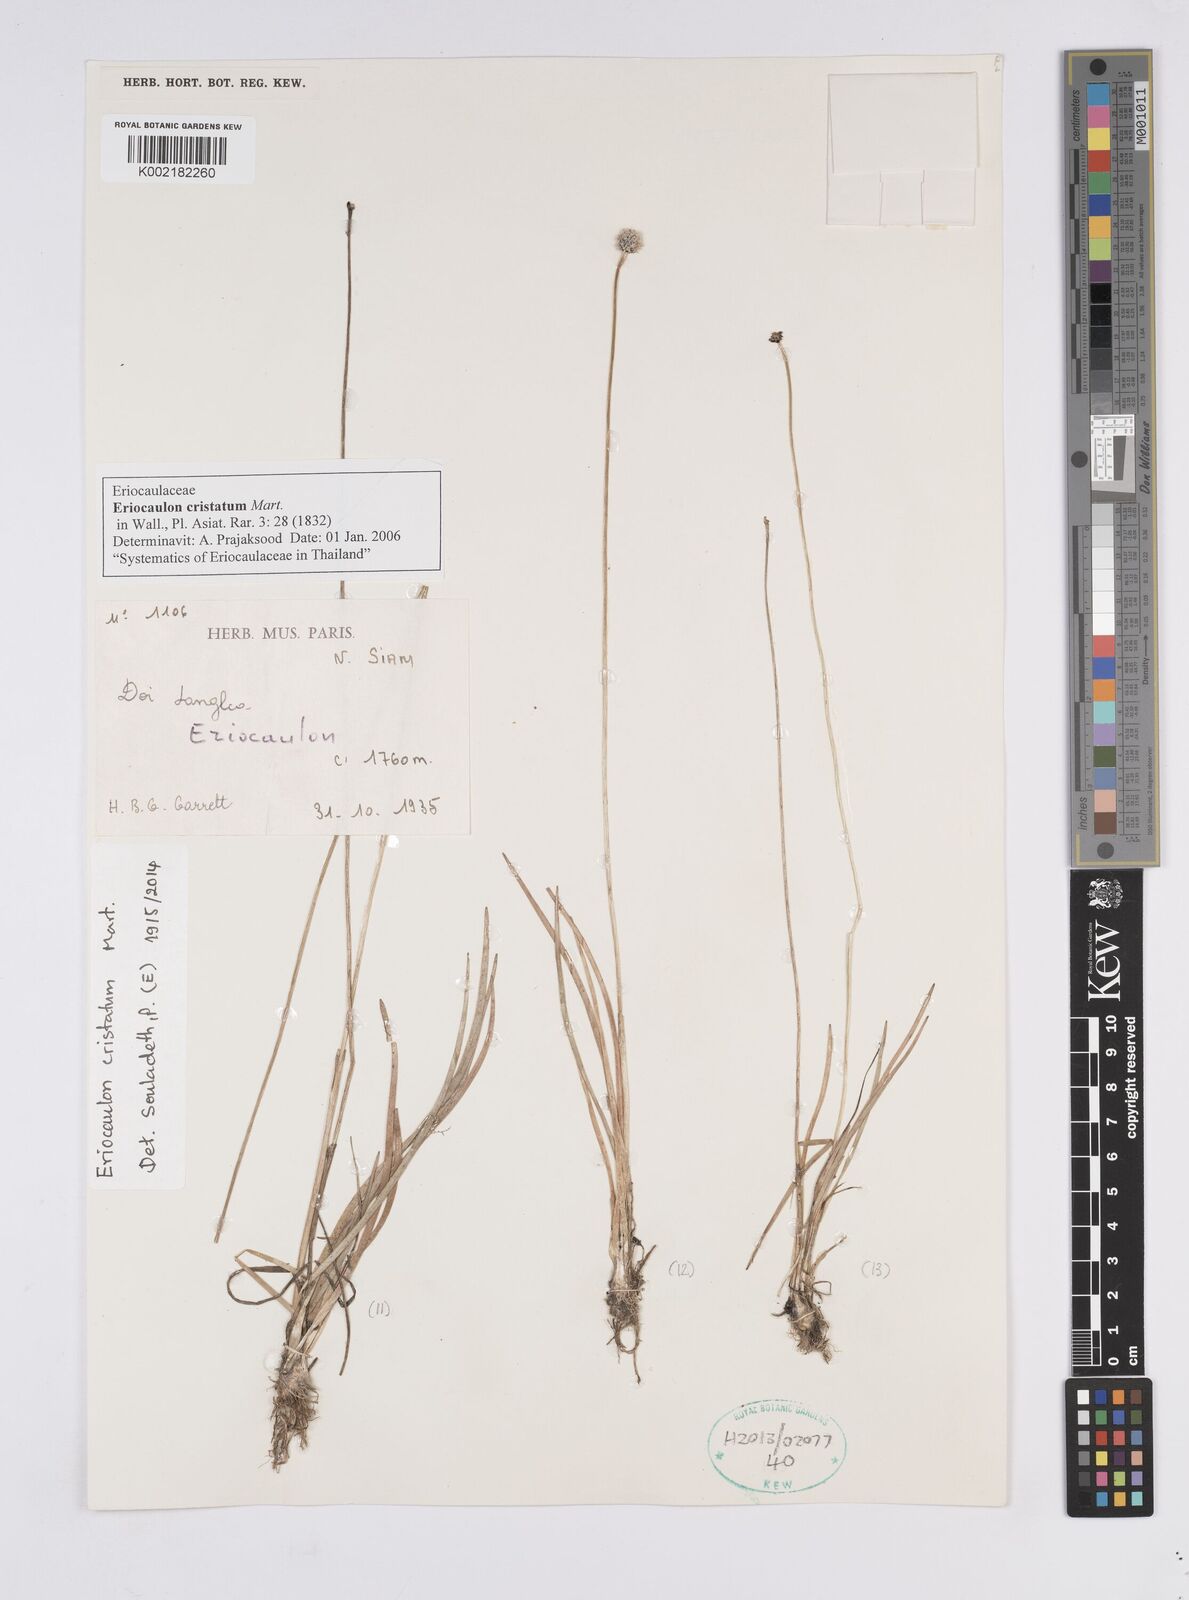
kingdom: Plantae
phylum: Tracheophyta
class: Liliopsida
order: Poales
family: Eriocaulaceae
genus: Eriocaulon
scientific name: Eriocaulon cristatum
